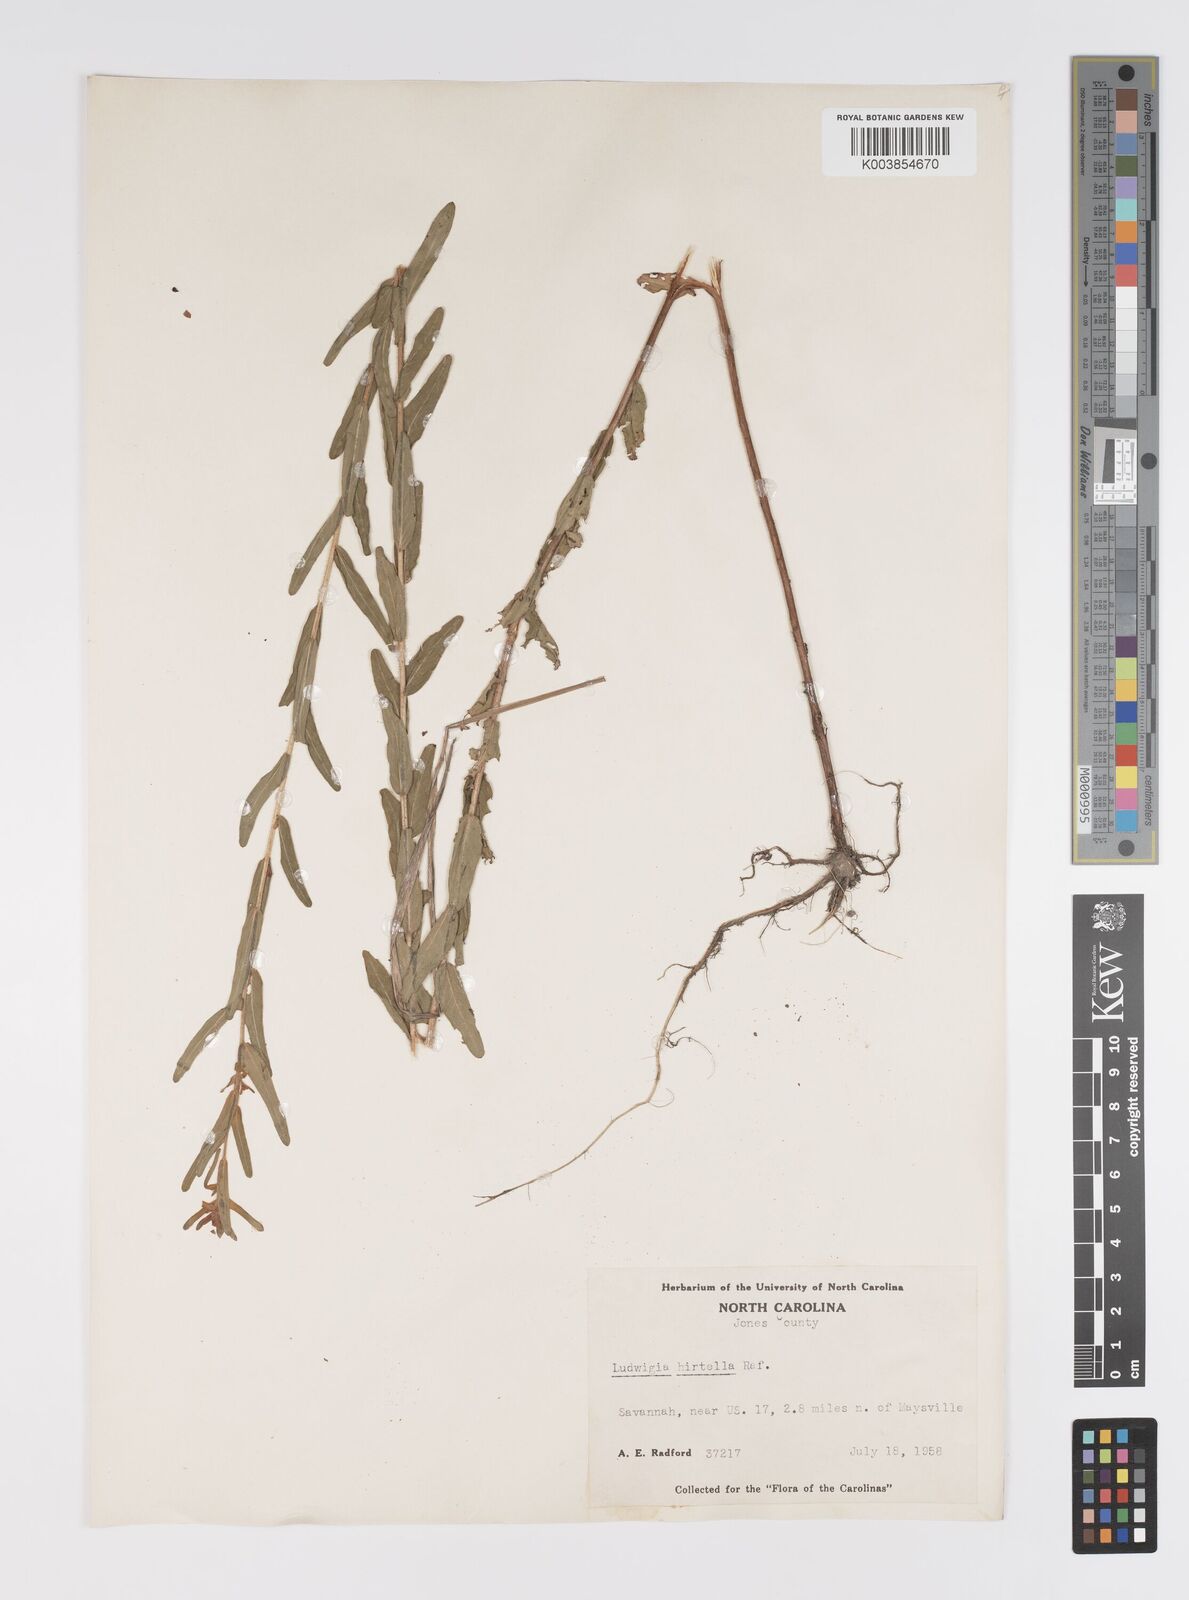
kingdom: Plantae
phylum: Tracheophyta
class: Magnoliopsida
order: Myrtales
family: Onagraceae
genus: Ludwigia
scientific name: Ludwigia hirtella
